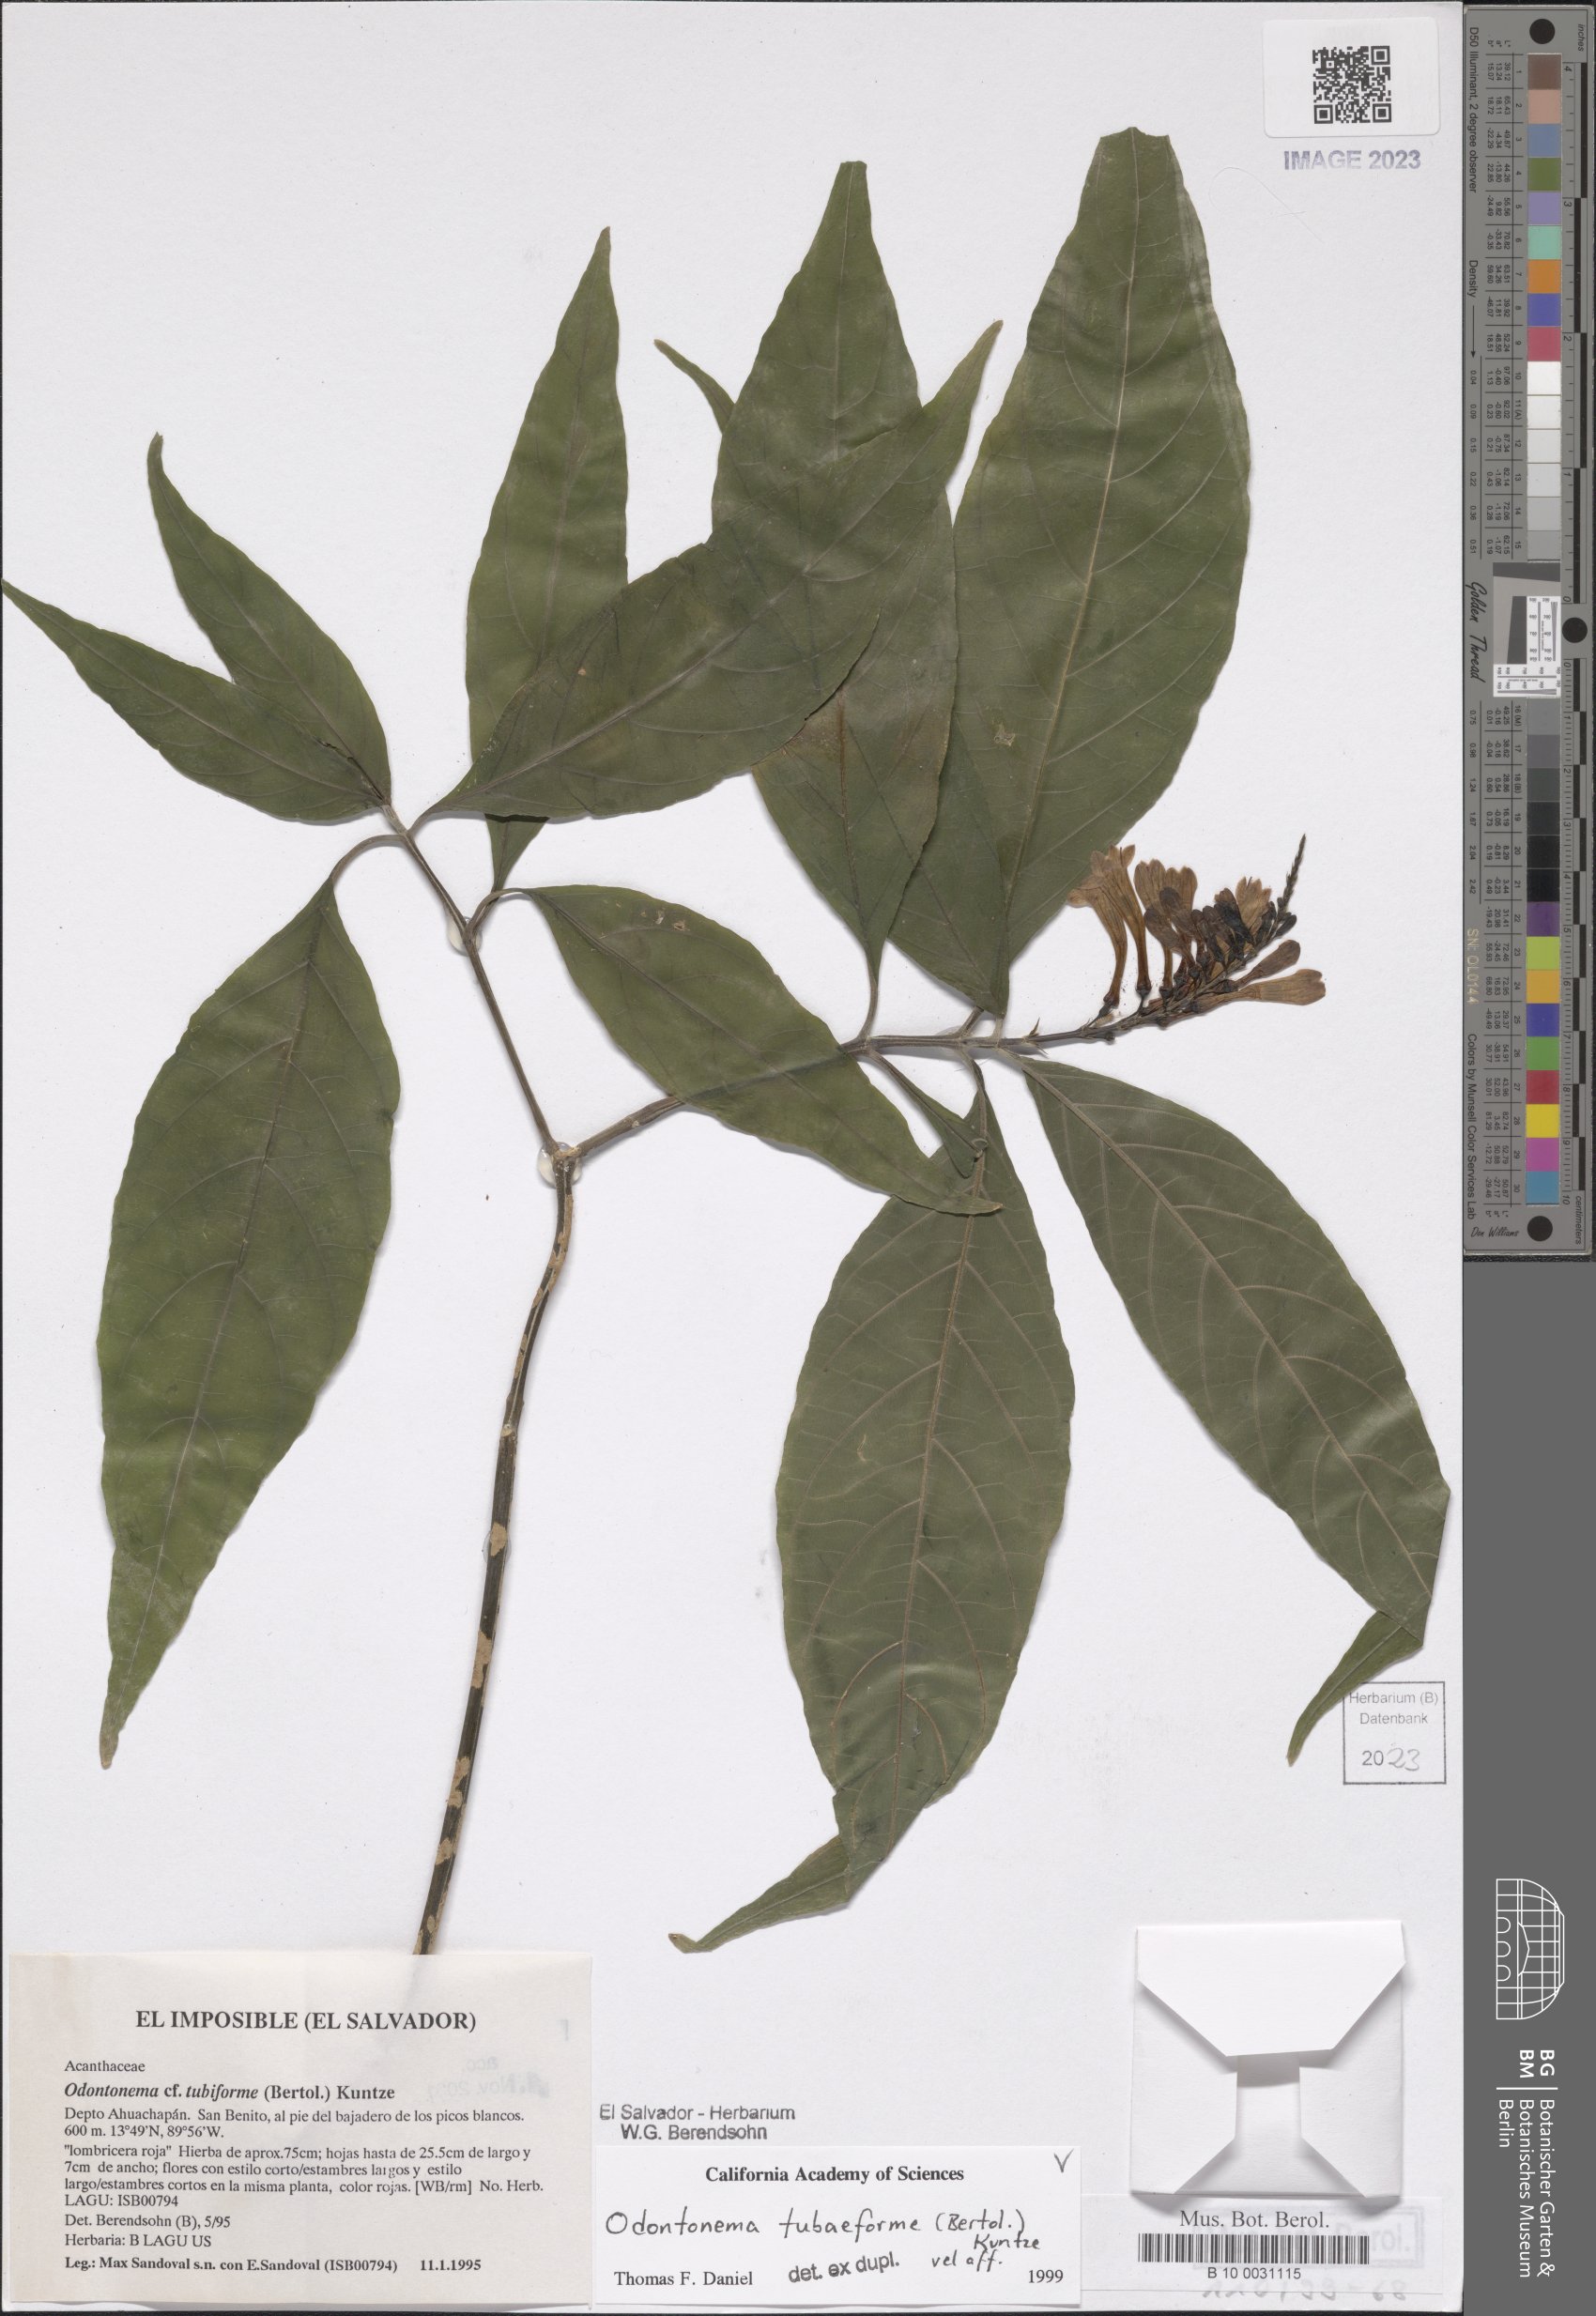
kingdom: Plantae
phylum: Tracheophyta
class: Magnoliopsida
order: Lamiales
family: Acanthaceae
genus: Odontonema
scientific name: Odontonema tubaeforme
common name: Firespike
